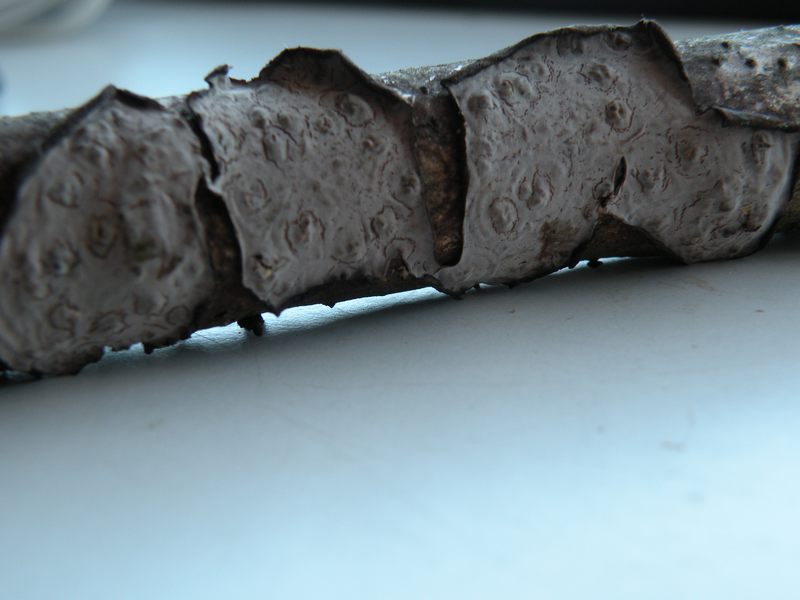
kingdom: Fungi
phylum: Basidiomycota
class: Agaricomycetes
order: Russulales
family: Peniophoraceae
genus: Peniophora
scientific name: Peniophora quercina
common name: ege-voksskind
